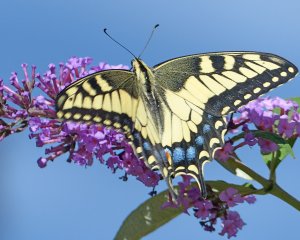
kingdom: Animalia
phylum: Arthropoda
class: Insecta
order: Lepidoptera
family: Papilionidae
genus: Papilio
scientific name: Papilio zelicaon
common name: Anise Swallowtail
